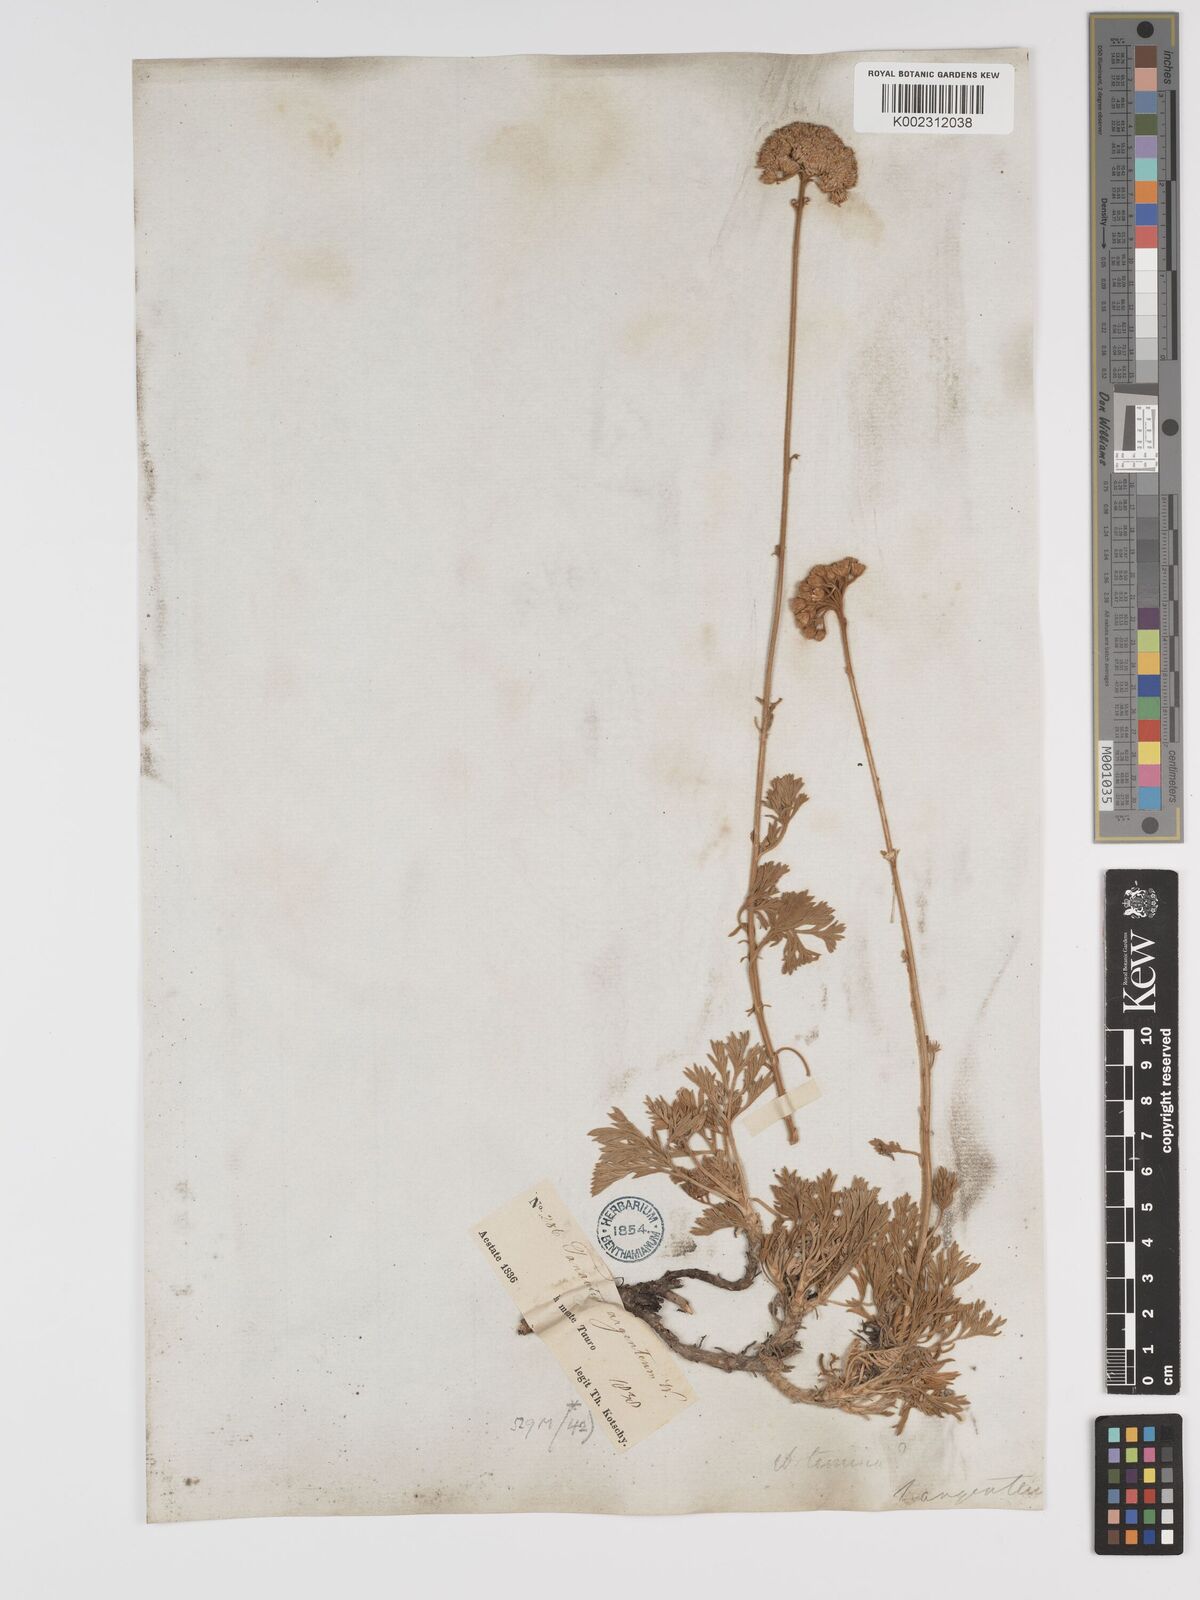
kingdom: Plantae
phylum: Tracheophyta
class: Magnoliopsida
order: Asterales
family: Asteraceae
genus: Tanacetum
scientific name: Tanacetum argenteum
